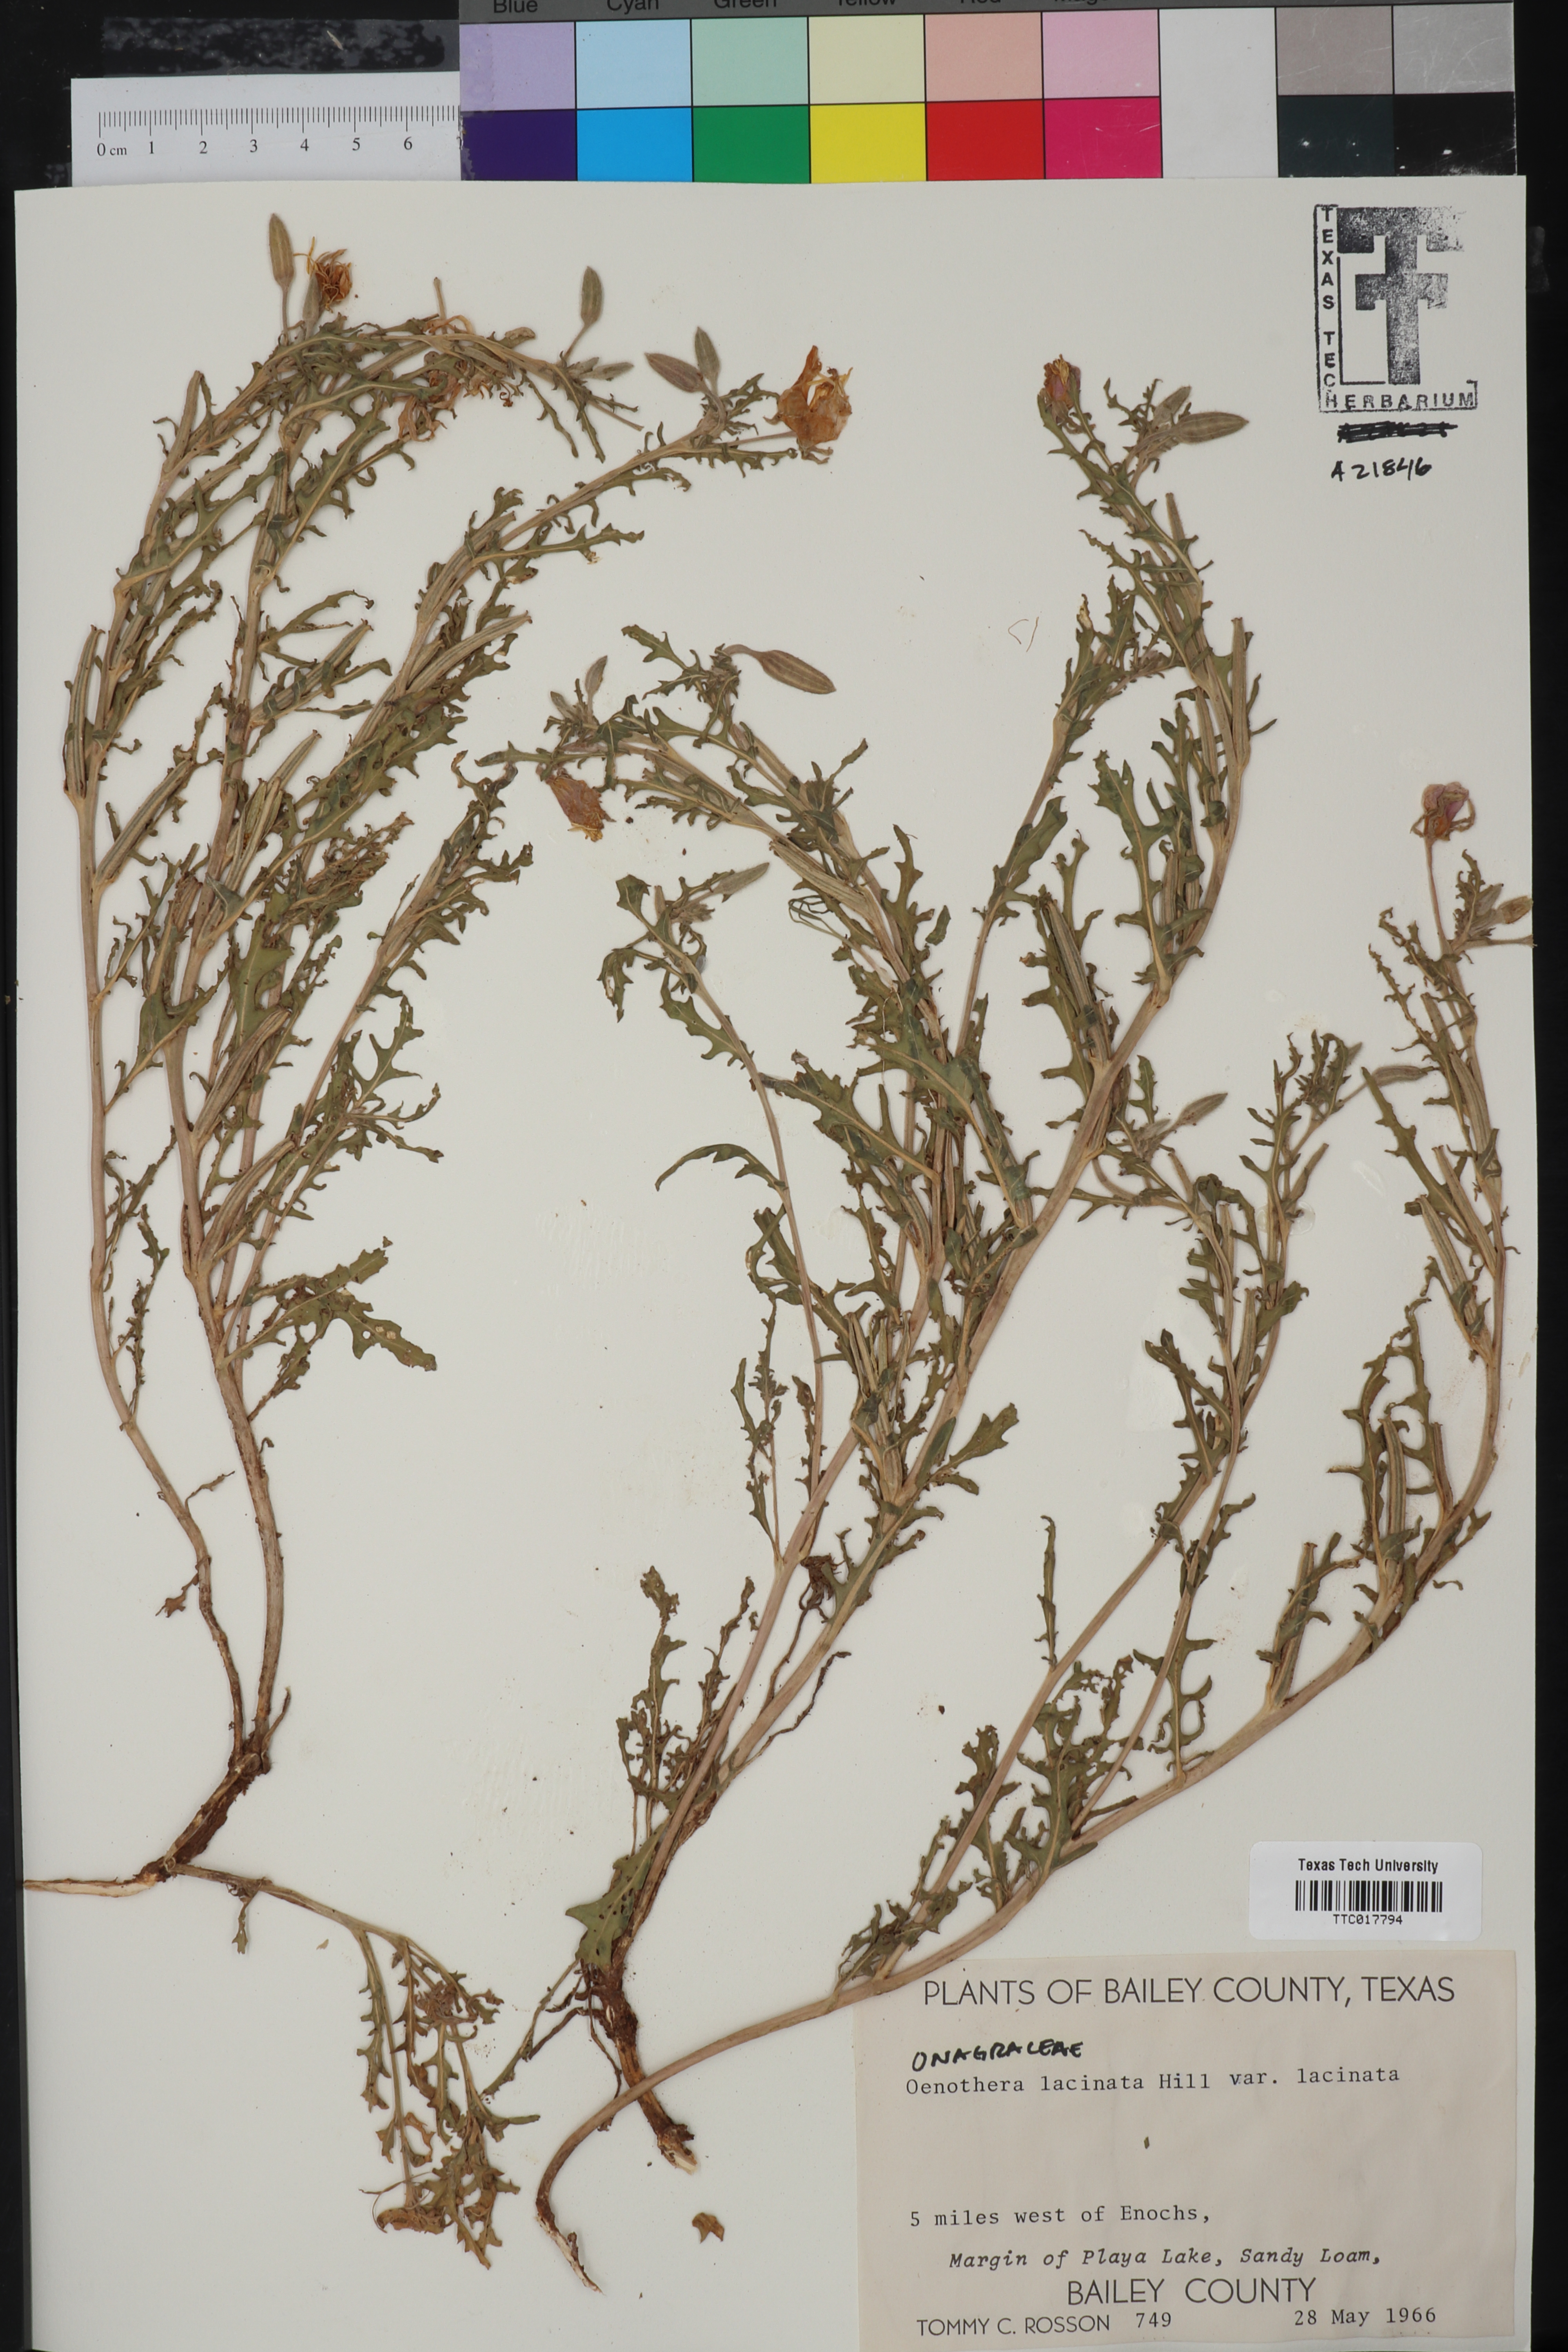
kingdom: Plantae
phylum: Tracheophyta
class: Magnoliopsida
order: Myrtales
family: Onagraceae
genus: Oenothera
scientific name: Oenothera laciniata
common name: Cut-leaved evening-primrose
